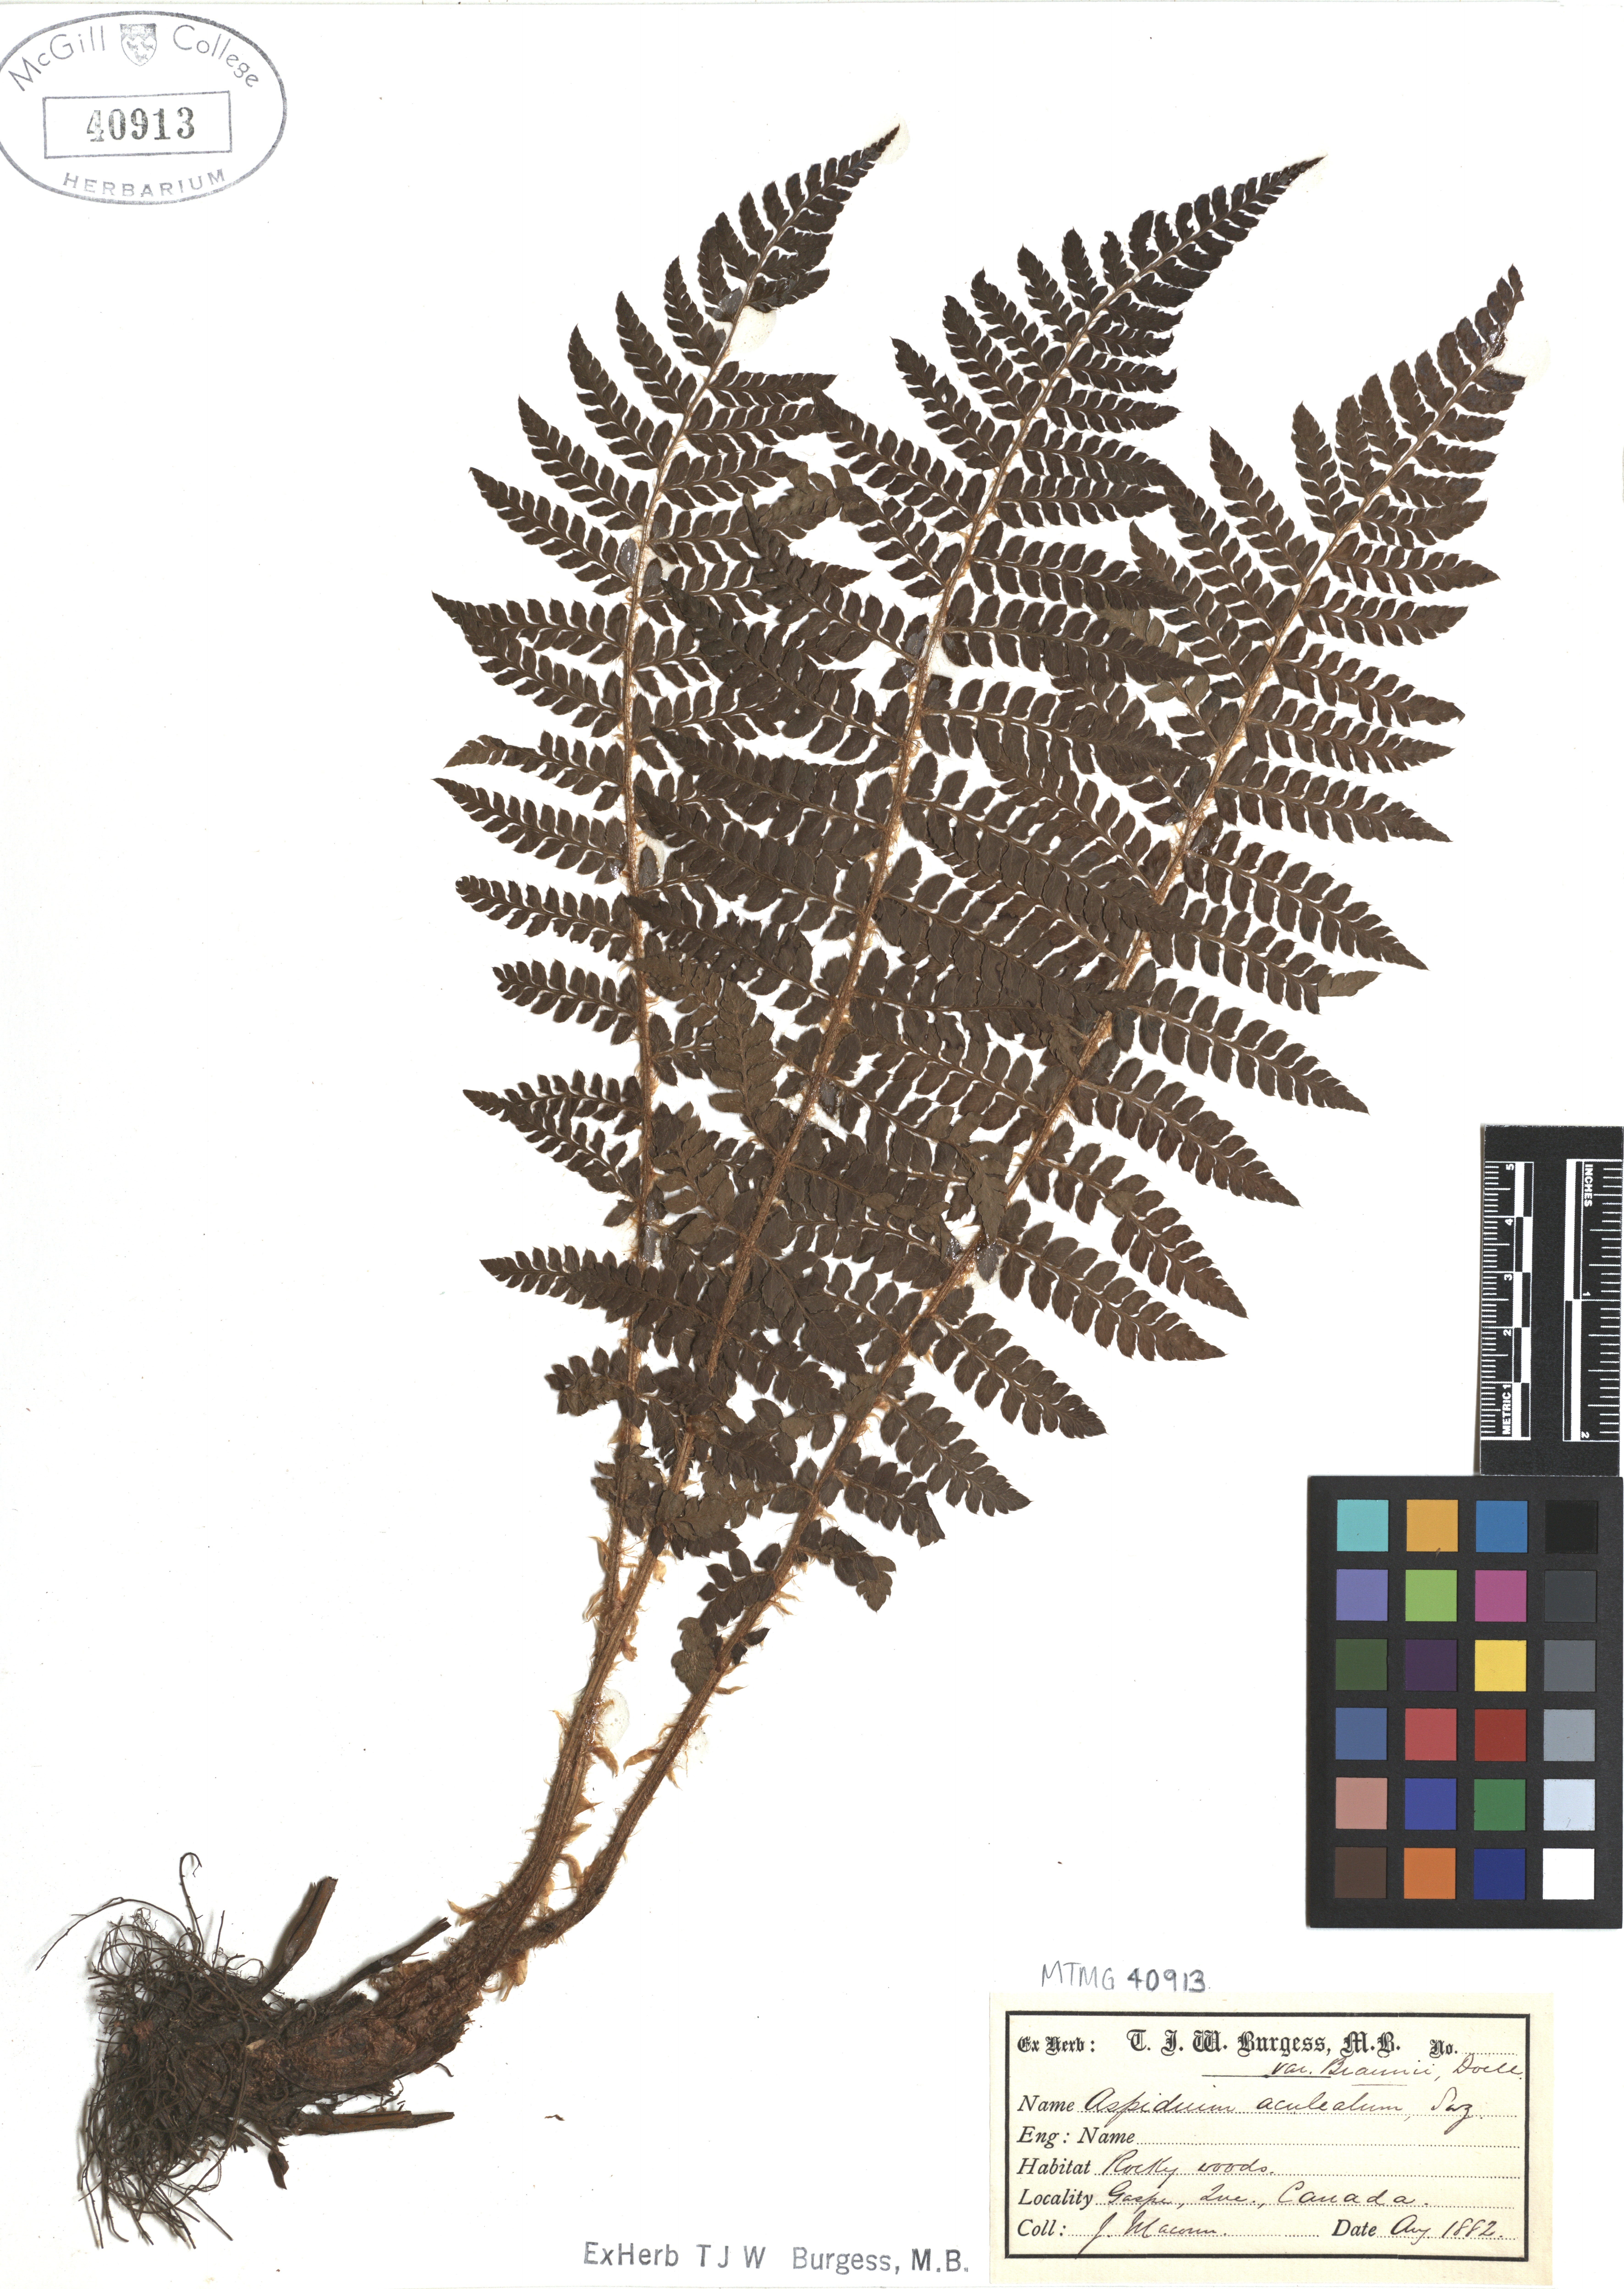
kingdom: Plantae
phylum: Tracheophyta
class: Polypodiopsida
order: Polypodiales
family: Dryopteridaceae
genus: Polystichum
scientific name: Polystichum tetragonum
